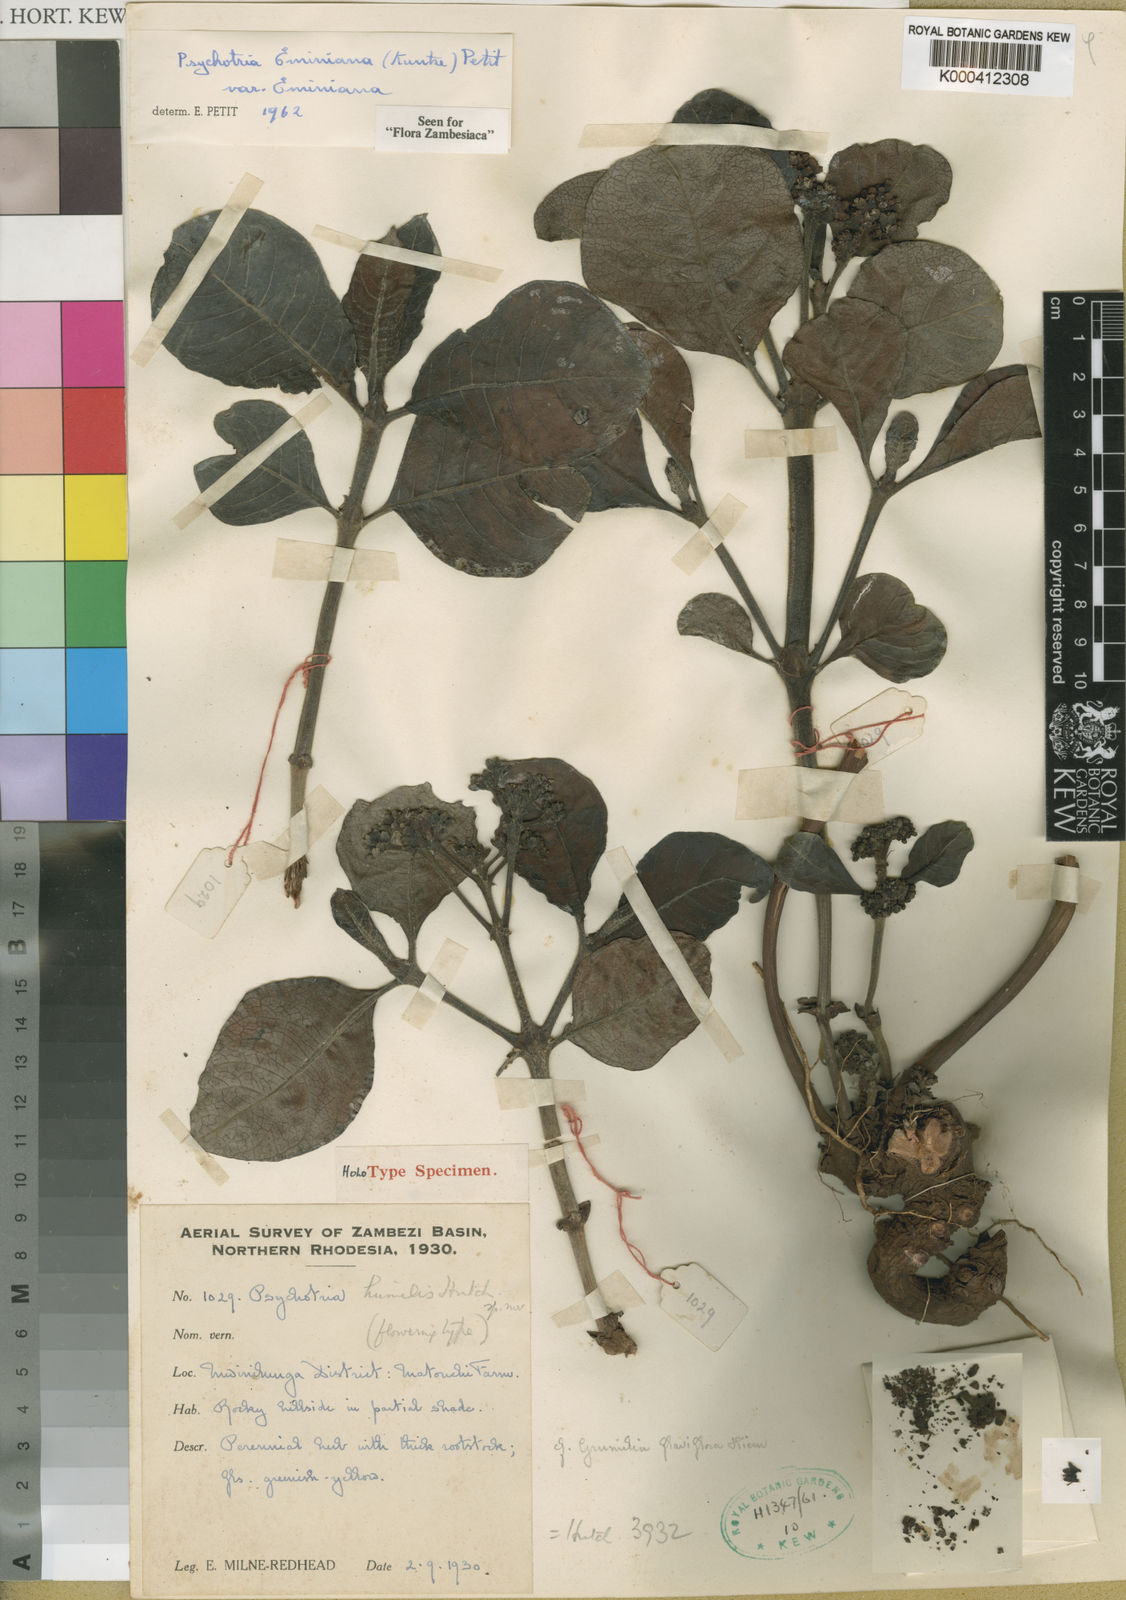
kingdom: Plantae
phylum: Tracheophyta
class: Magnoliopsida
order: Gentianales
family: Rubiaceae
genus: Psychotria
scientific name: Psychotria eminiana
